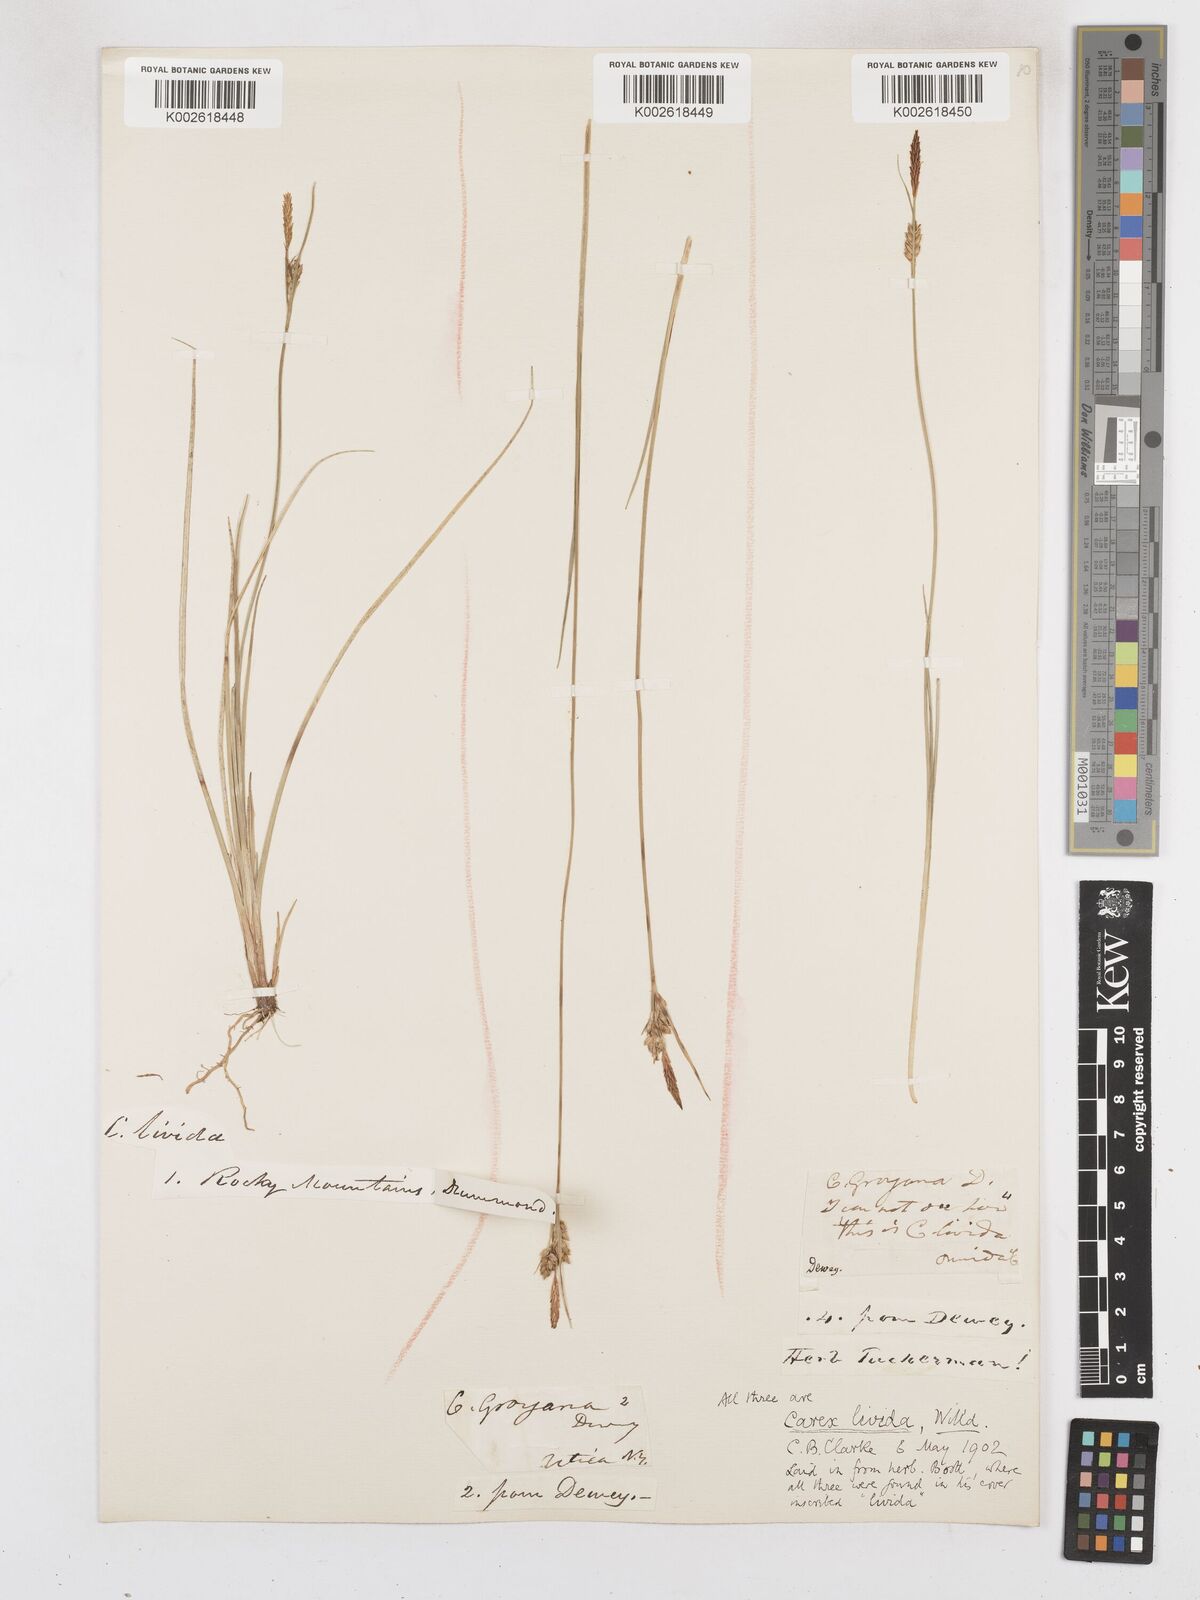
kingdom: Plantae
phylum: Tracheophyta
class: Liliopsida
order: Poales
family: Cyperaceae
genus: Carex
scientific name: Carex livida
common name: Livid sedge
